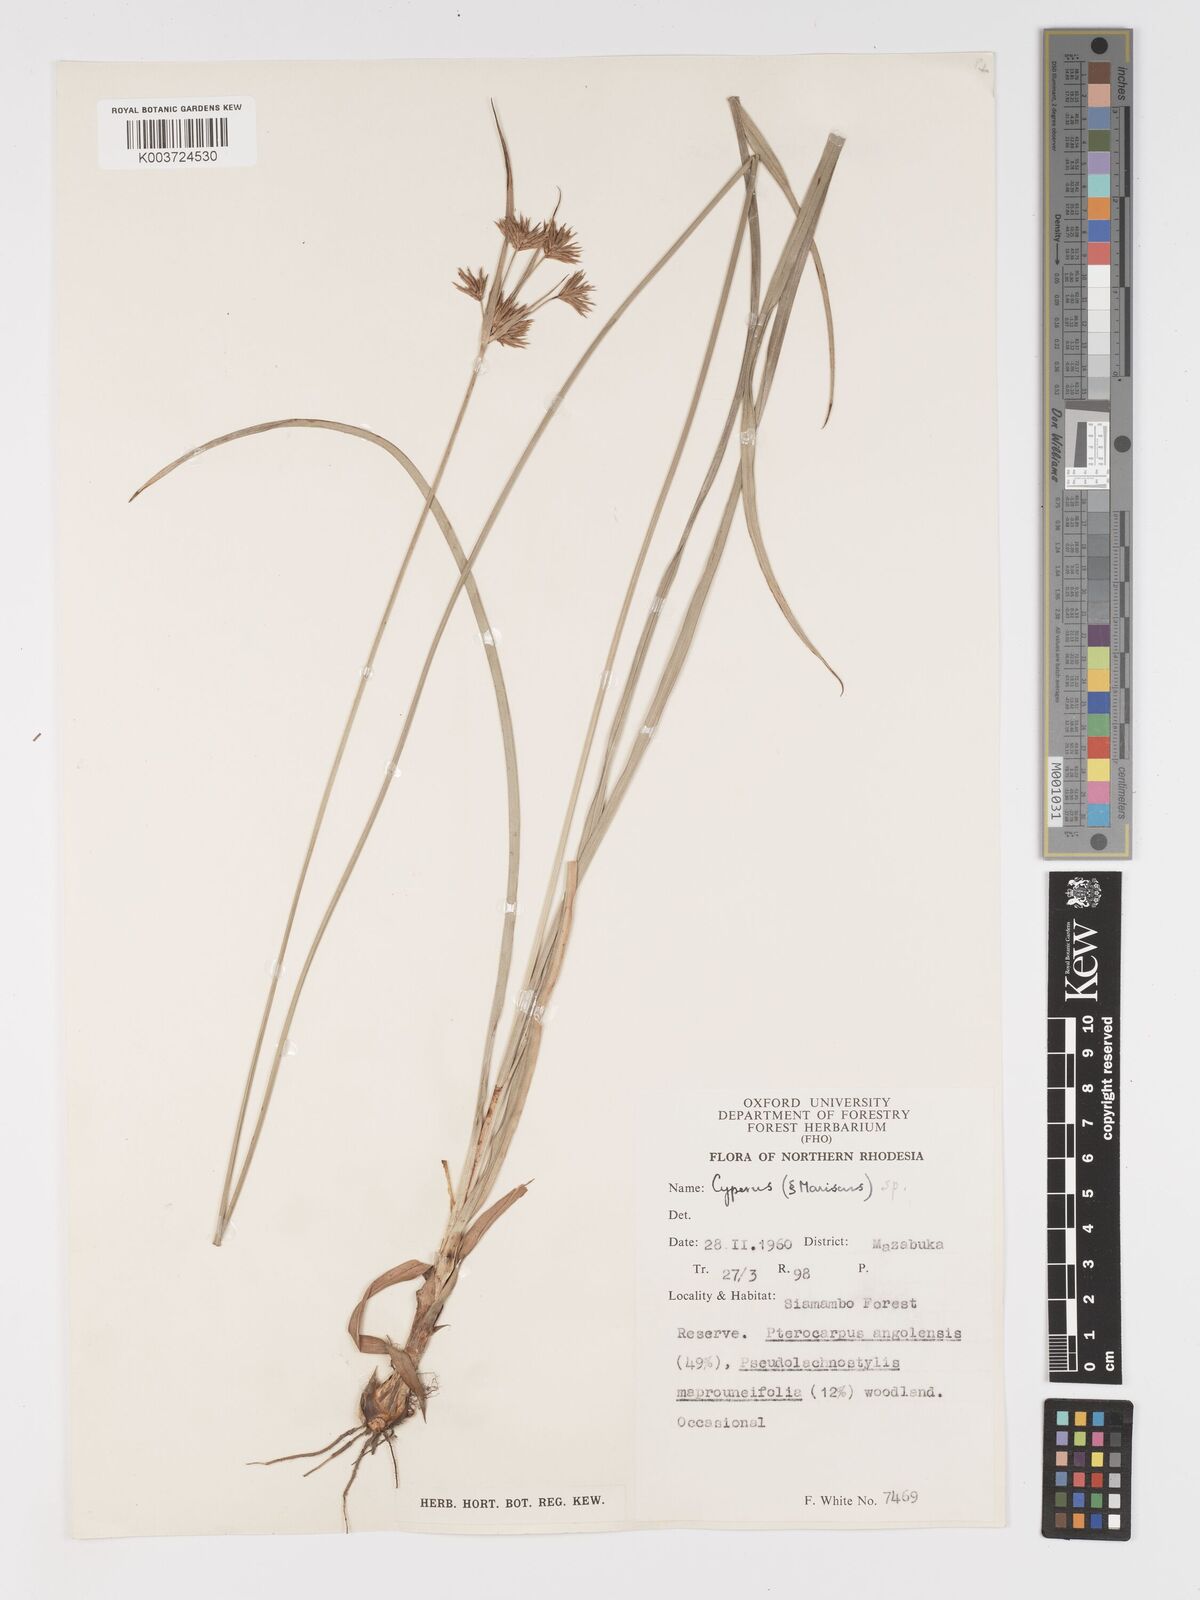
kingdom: Plantae
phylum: Tracheophyta
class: Liliopsida
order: Poales
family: Cyperaceae
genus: Cyperus
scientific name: Cyperus pubens
